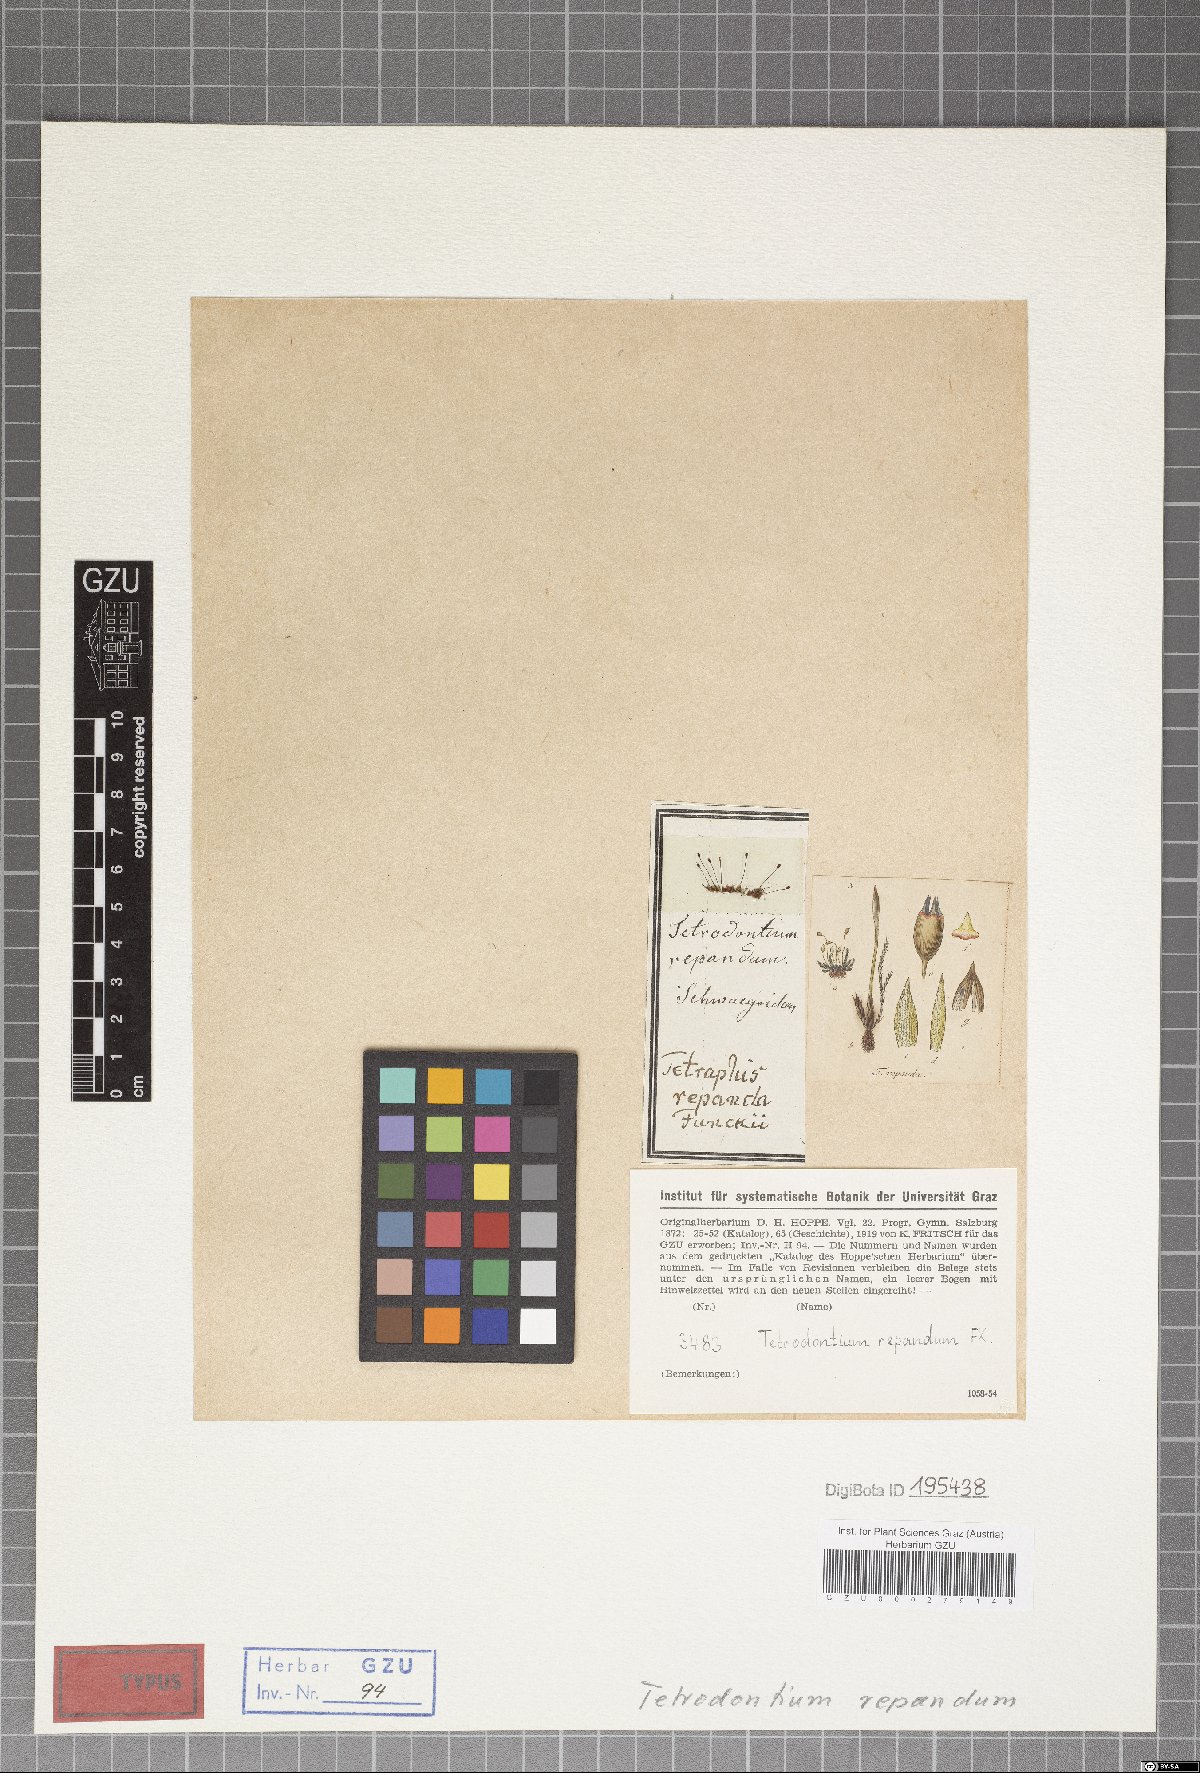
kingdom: Plantae
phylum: Bryophyta
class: Polytrichopsida
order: Tetraphidales
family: Tetraphidaceae
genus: Tetrodontium
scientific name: Tetrodontium repandum
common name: Small four-toothed moss
